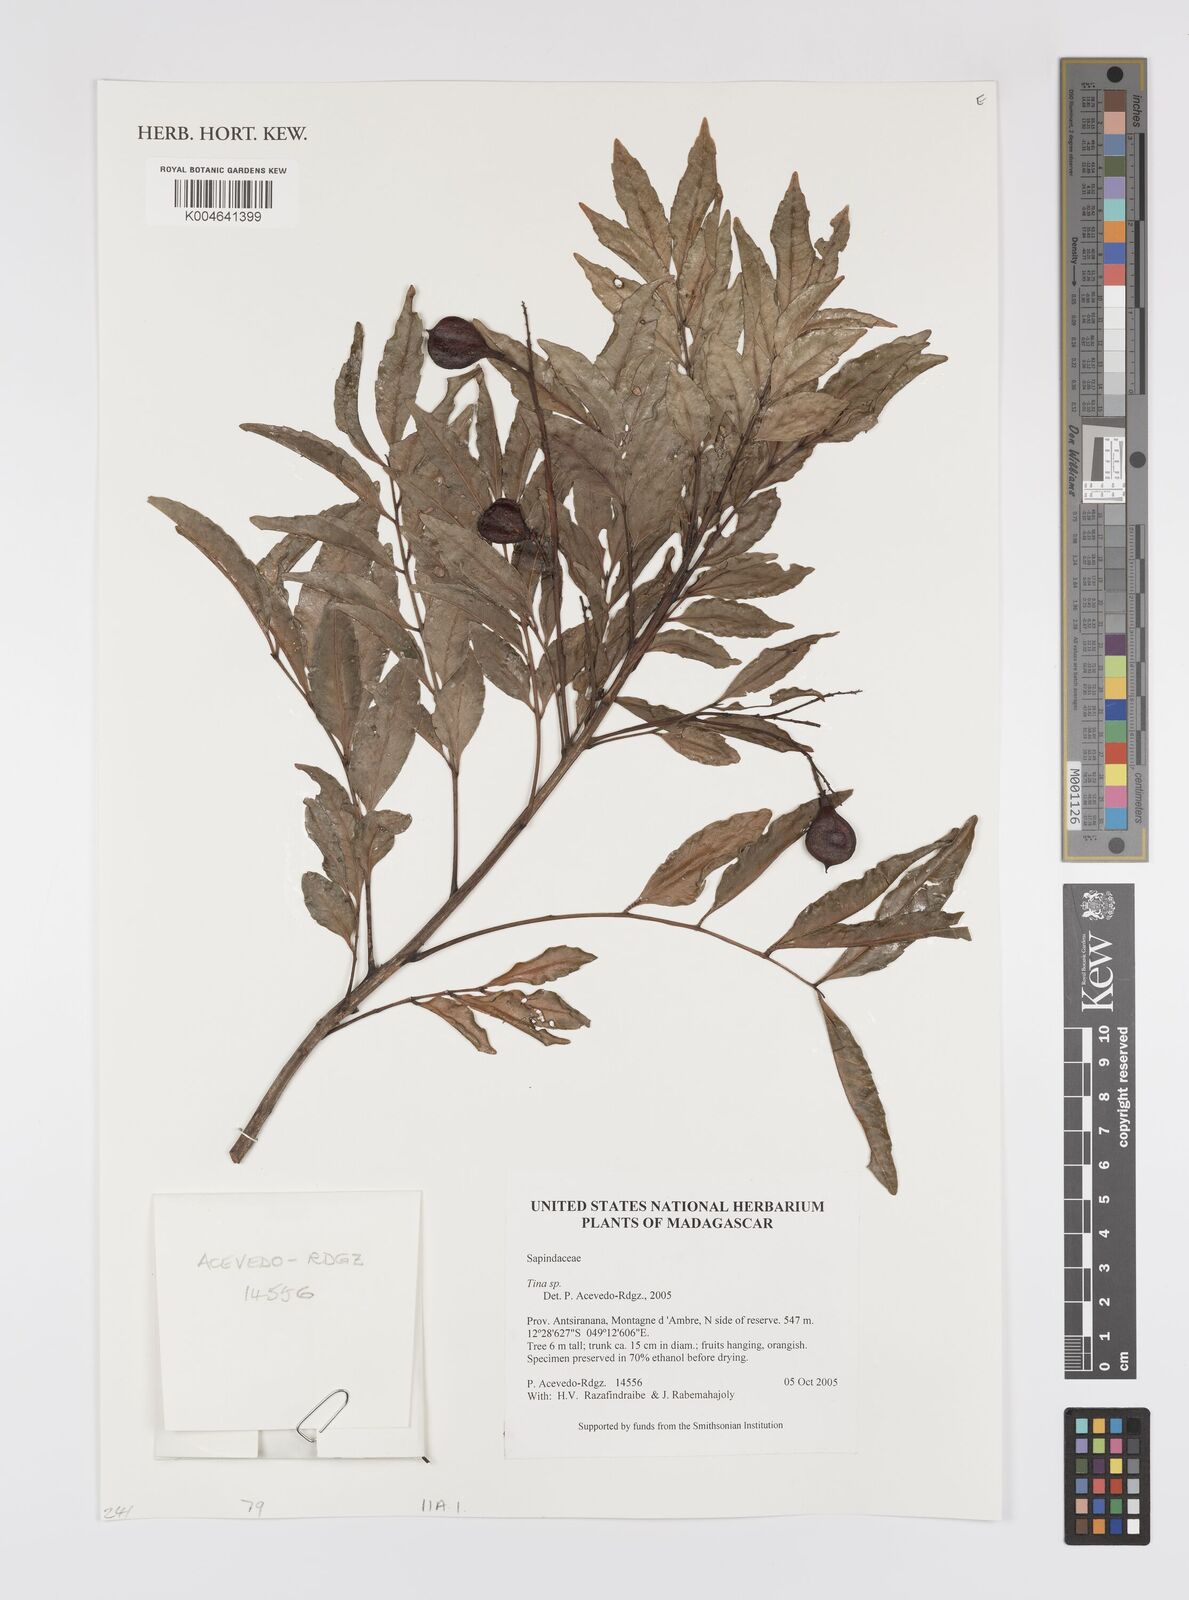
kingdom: Plantae
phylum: Tracheophyta
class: Magnoliopsida
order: Sapindales
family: Sapindaceae
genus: Tina
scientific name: Tina
